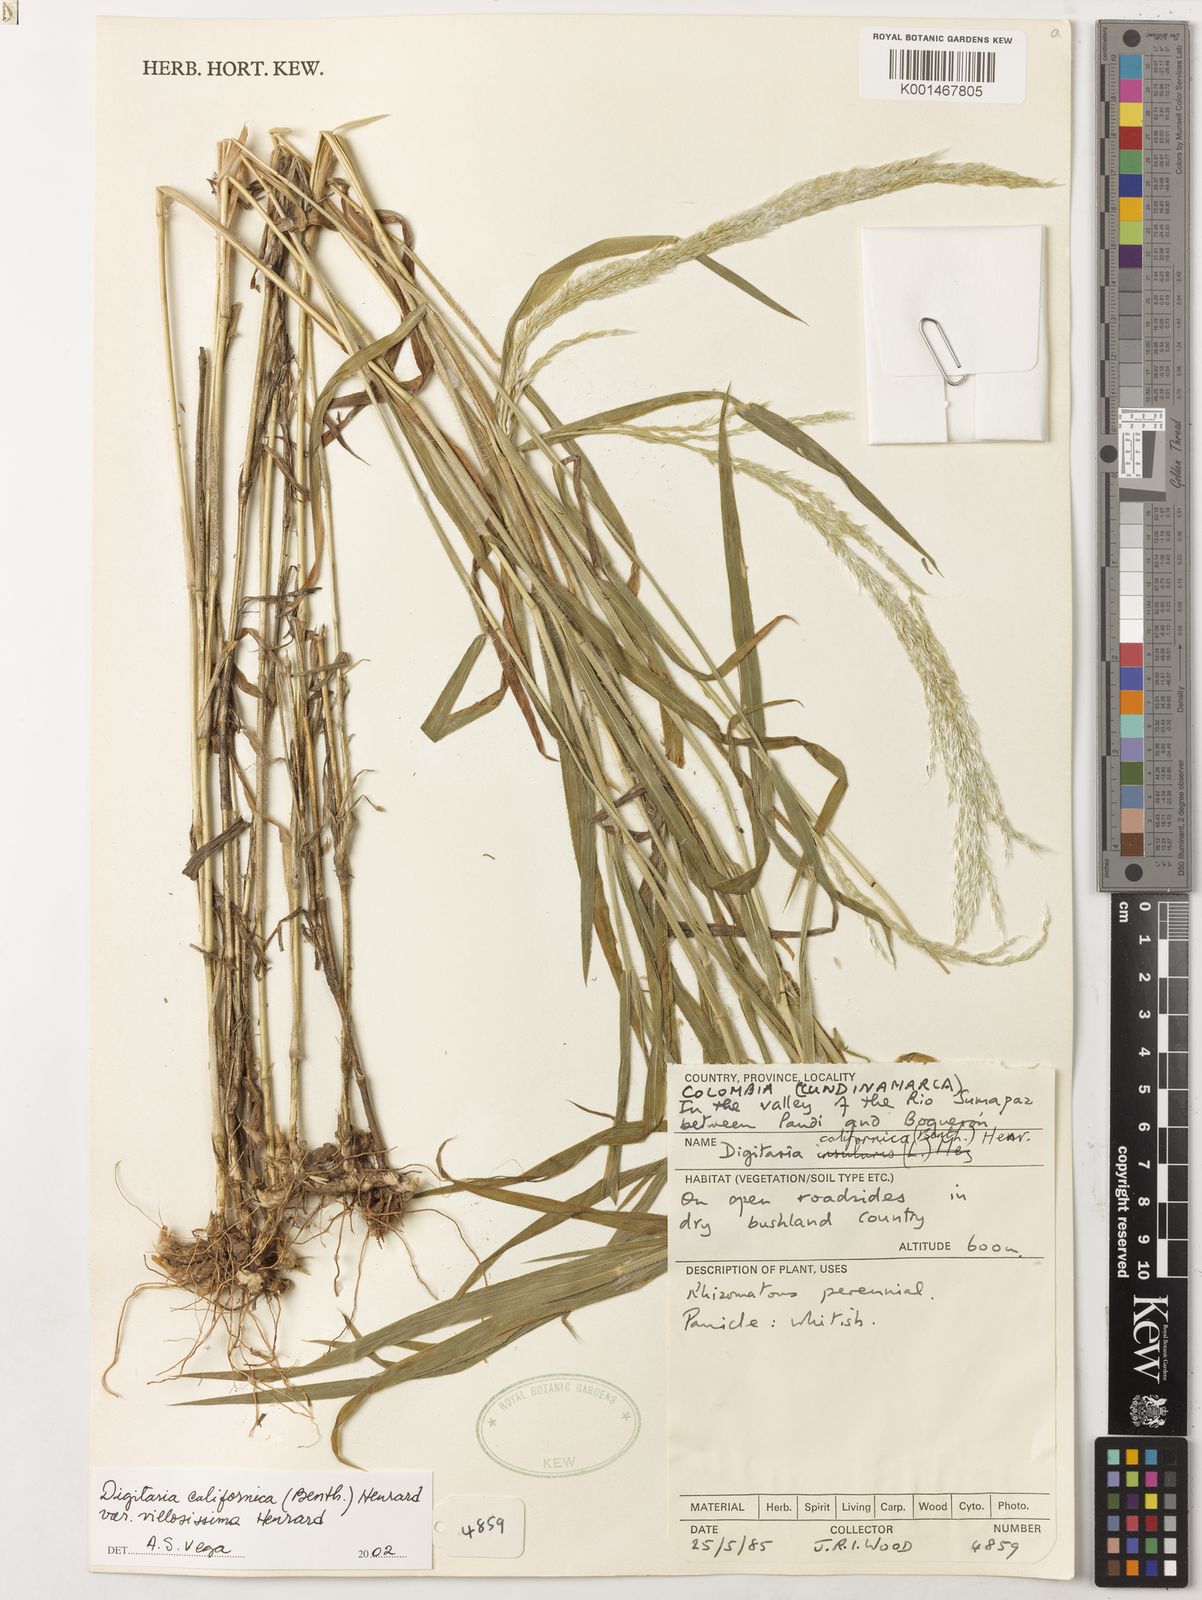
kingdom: Plantae
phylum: Tracheophyta
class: Liliopsida
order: Poales
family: Poaceae
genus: Digitaria
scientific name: Digitaria californica
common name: Arizona cottontop
